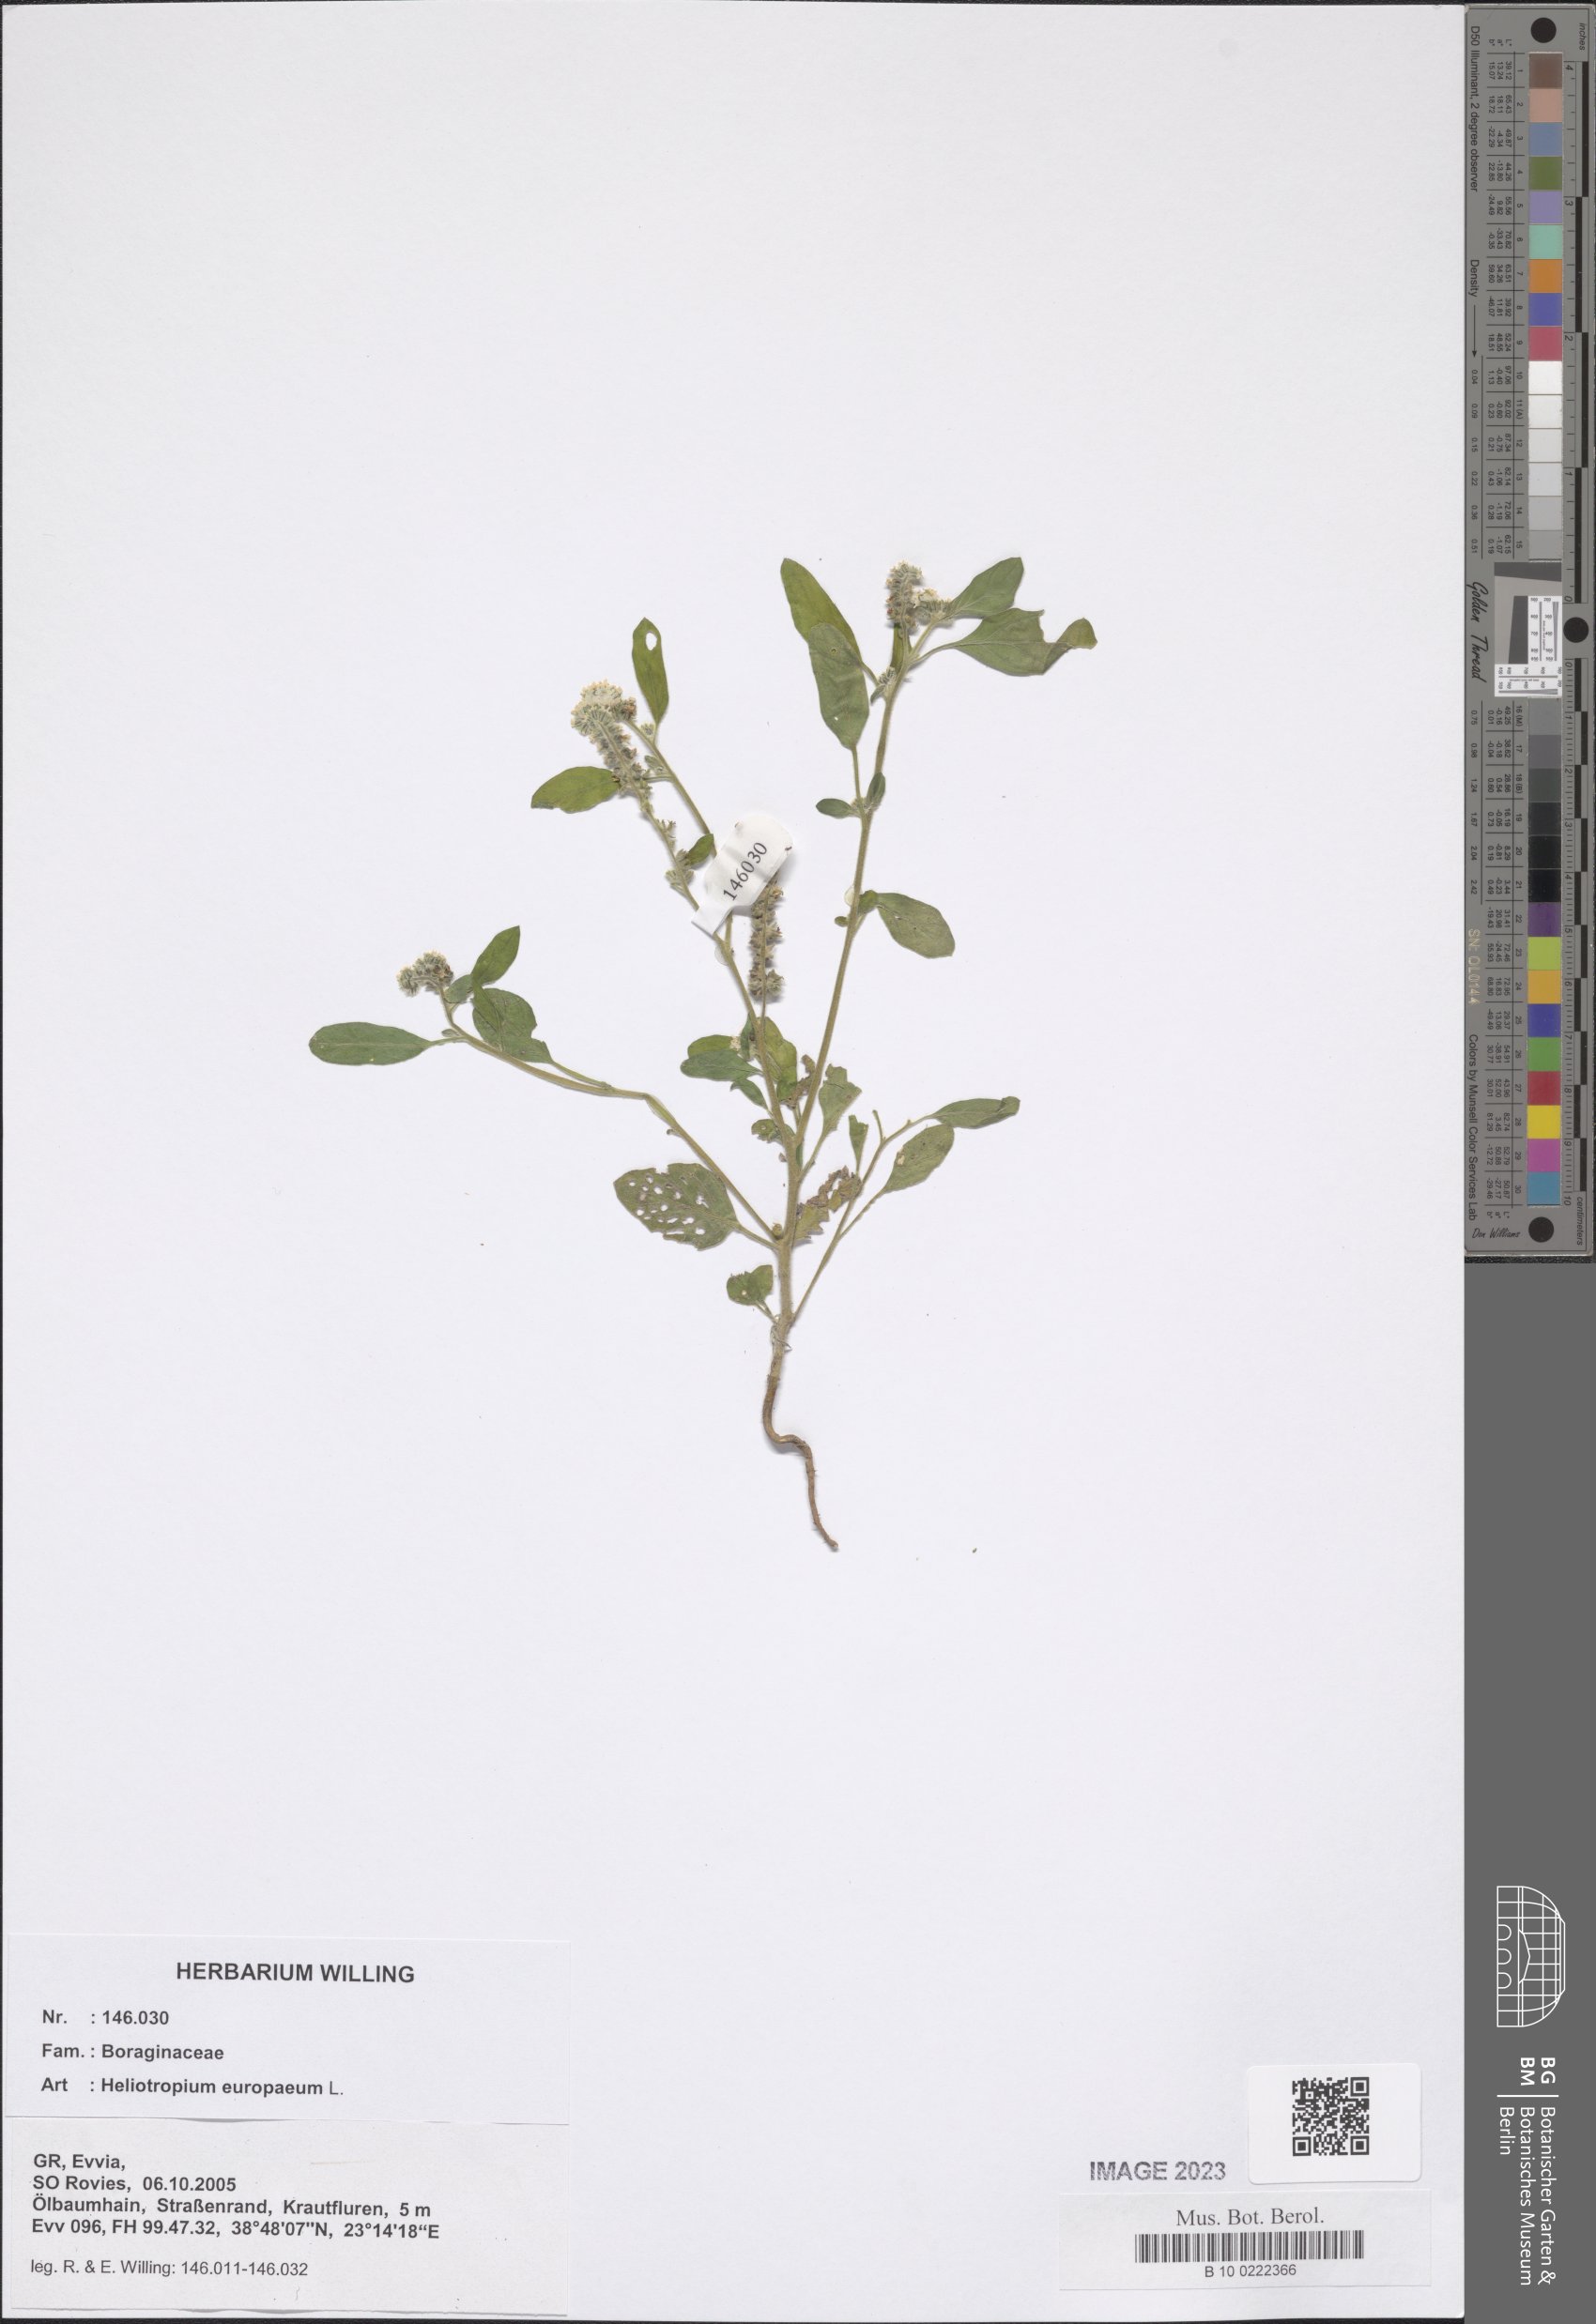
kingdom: Plantae
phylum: Tracheophyta
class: Magnoliopsida
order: Boraginales
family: Heliotropiaceae
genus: Heliotropium
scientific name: Heliotropium europaeum
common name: European heliotrope
